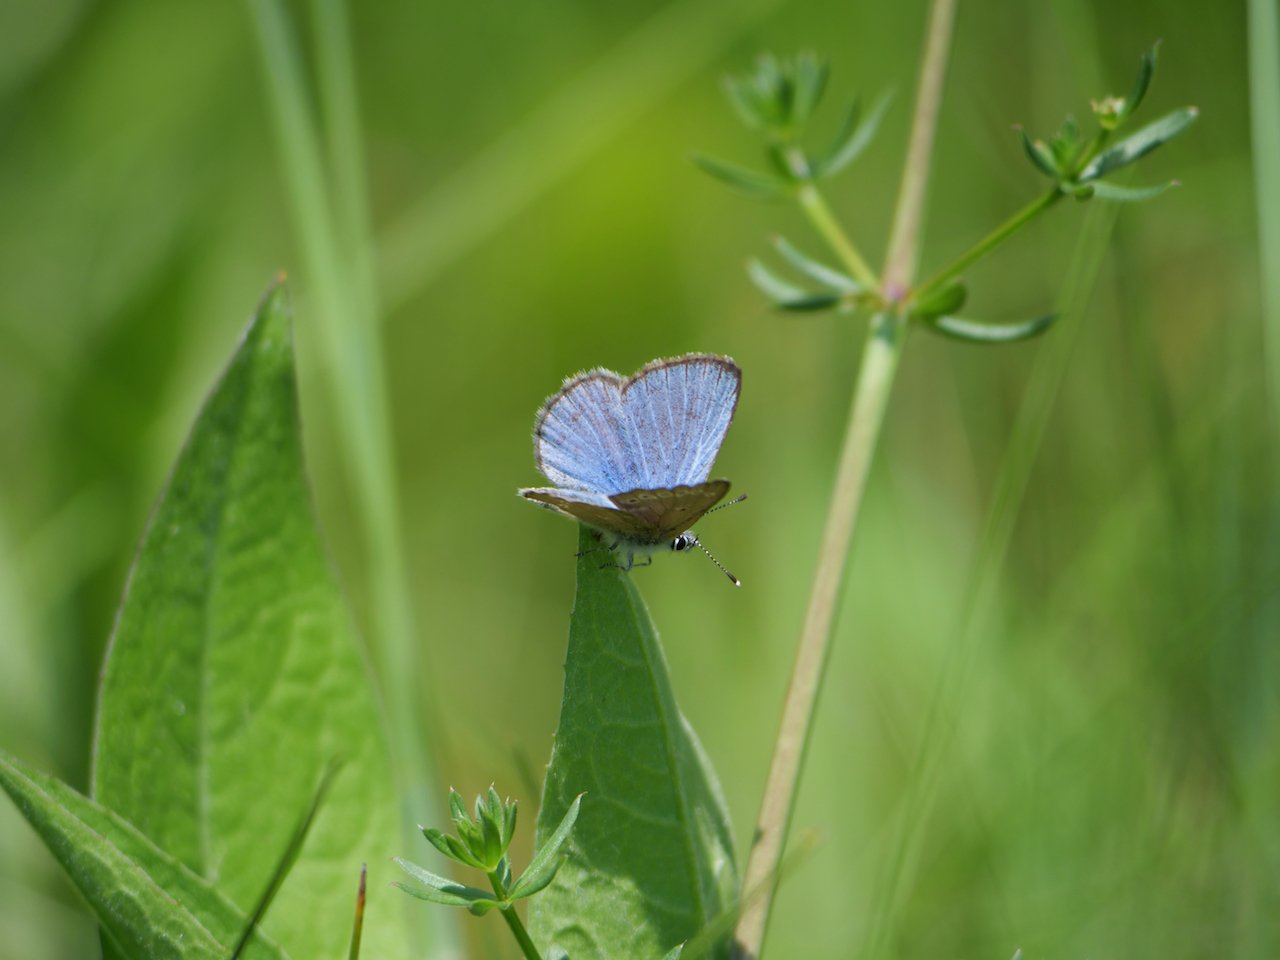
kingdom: Animalia
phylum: Arthropoda
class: Insecta
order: Lepidoptera
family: Lycaenidae
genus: Glaucopsyche
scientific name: Glaucopsyche lygdamus
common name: Silvery Blue
